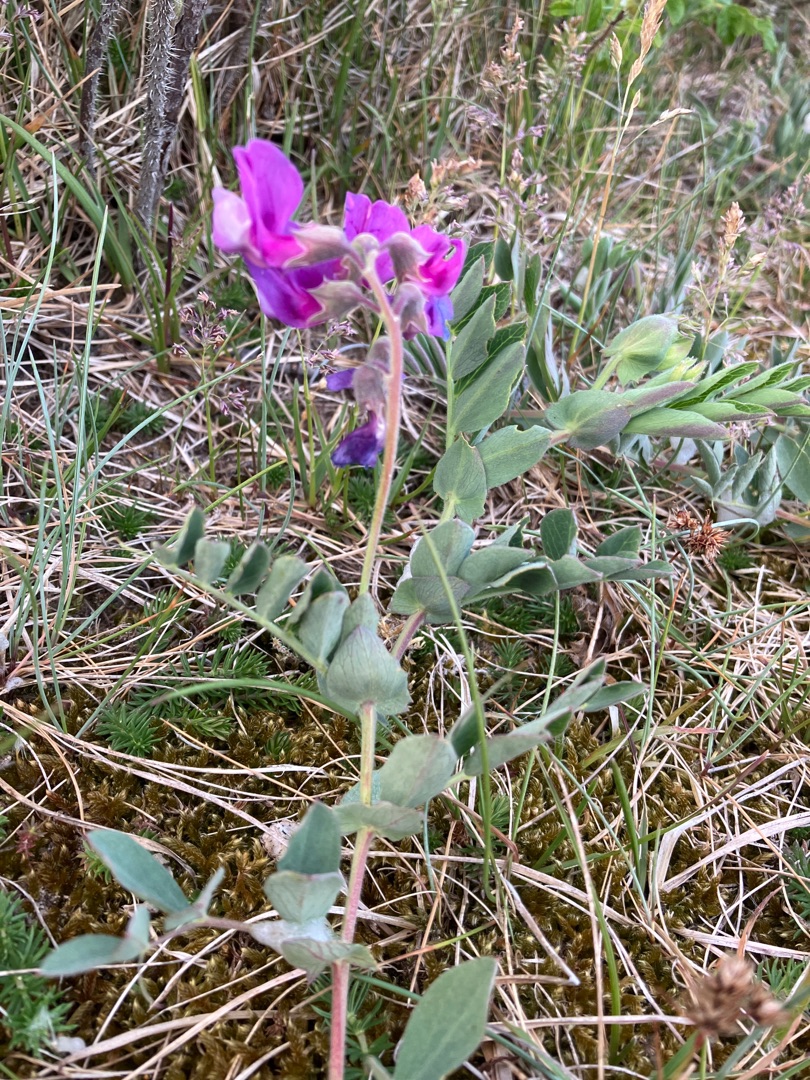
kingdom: Plantae
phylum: Tracheophyta
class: Magnoliopsida
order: Fabales
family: Fabaceae
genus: Lathyrus
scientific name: Lathyrus japonicus
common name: Strand-fladbælg
